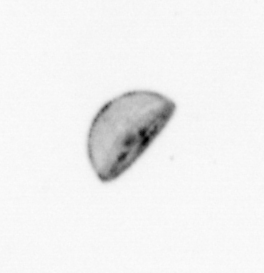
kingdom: Chromista
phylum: Ochrophyta
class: Bacillariophyceae
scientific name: Bacillariophyceae
